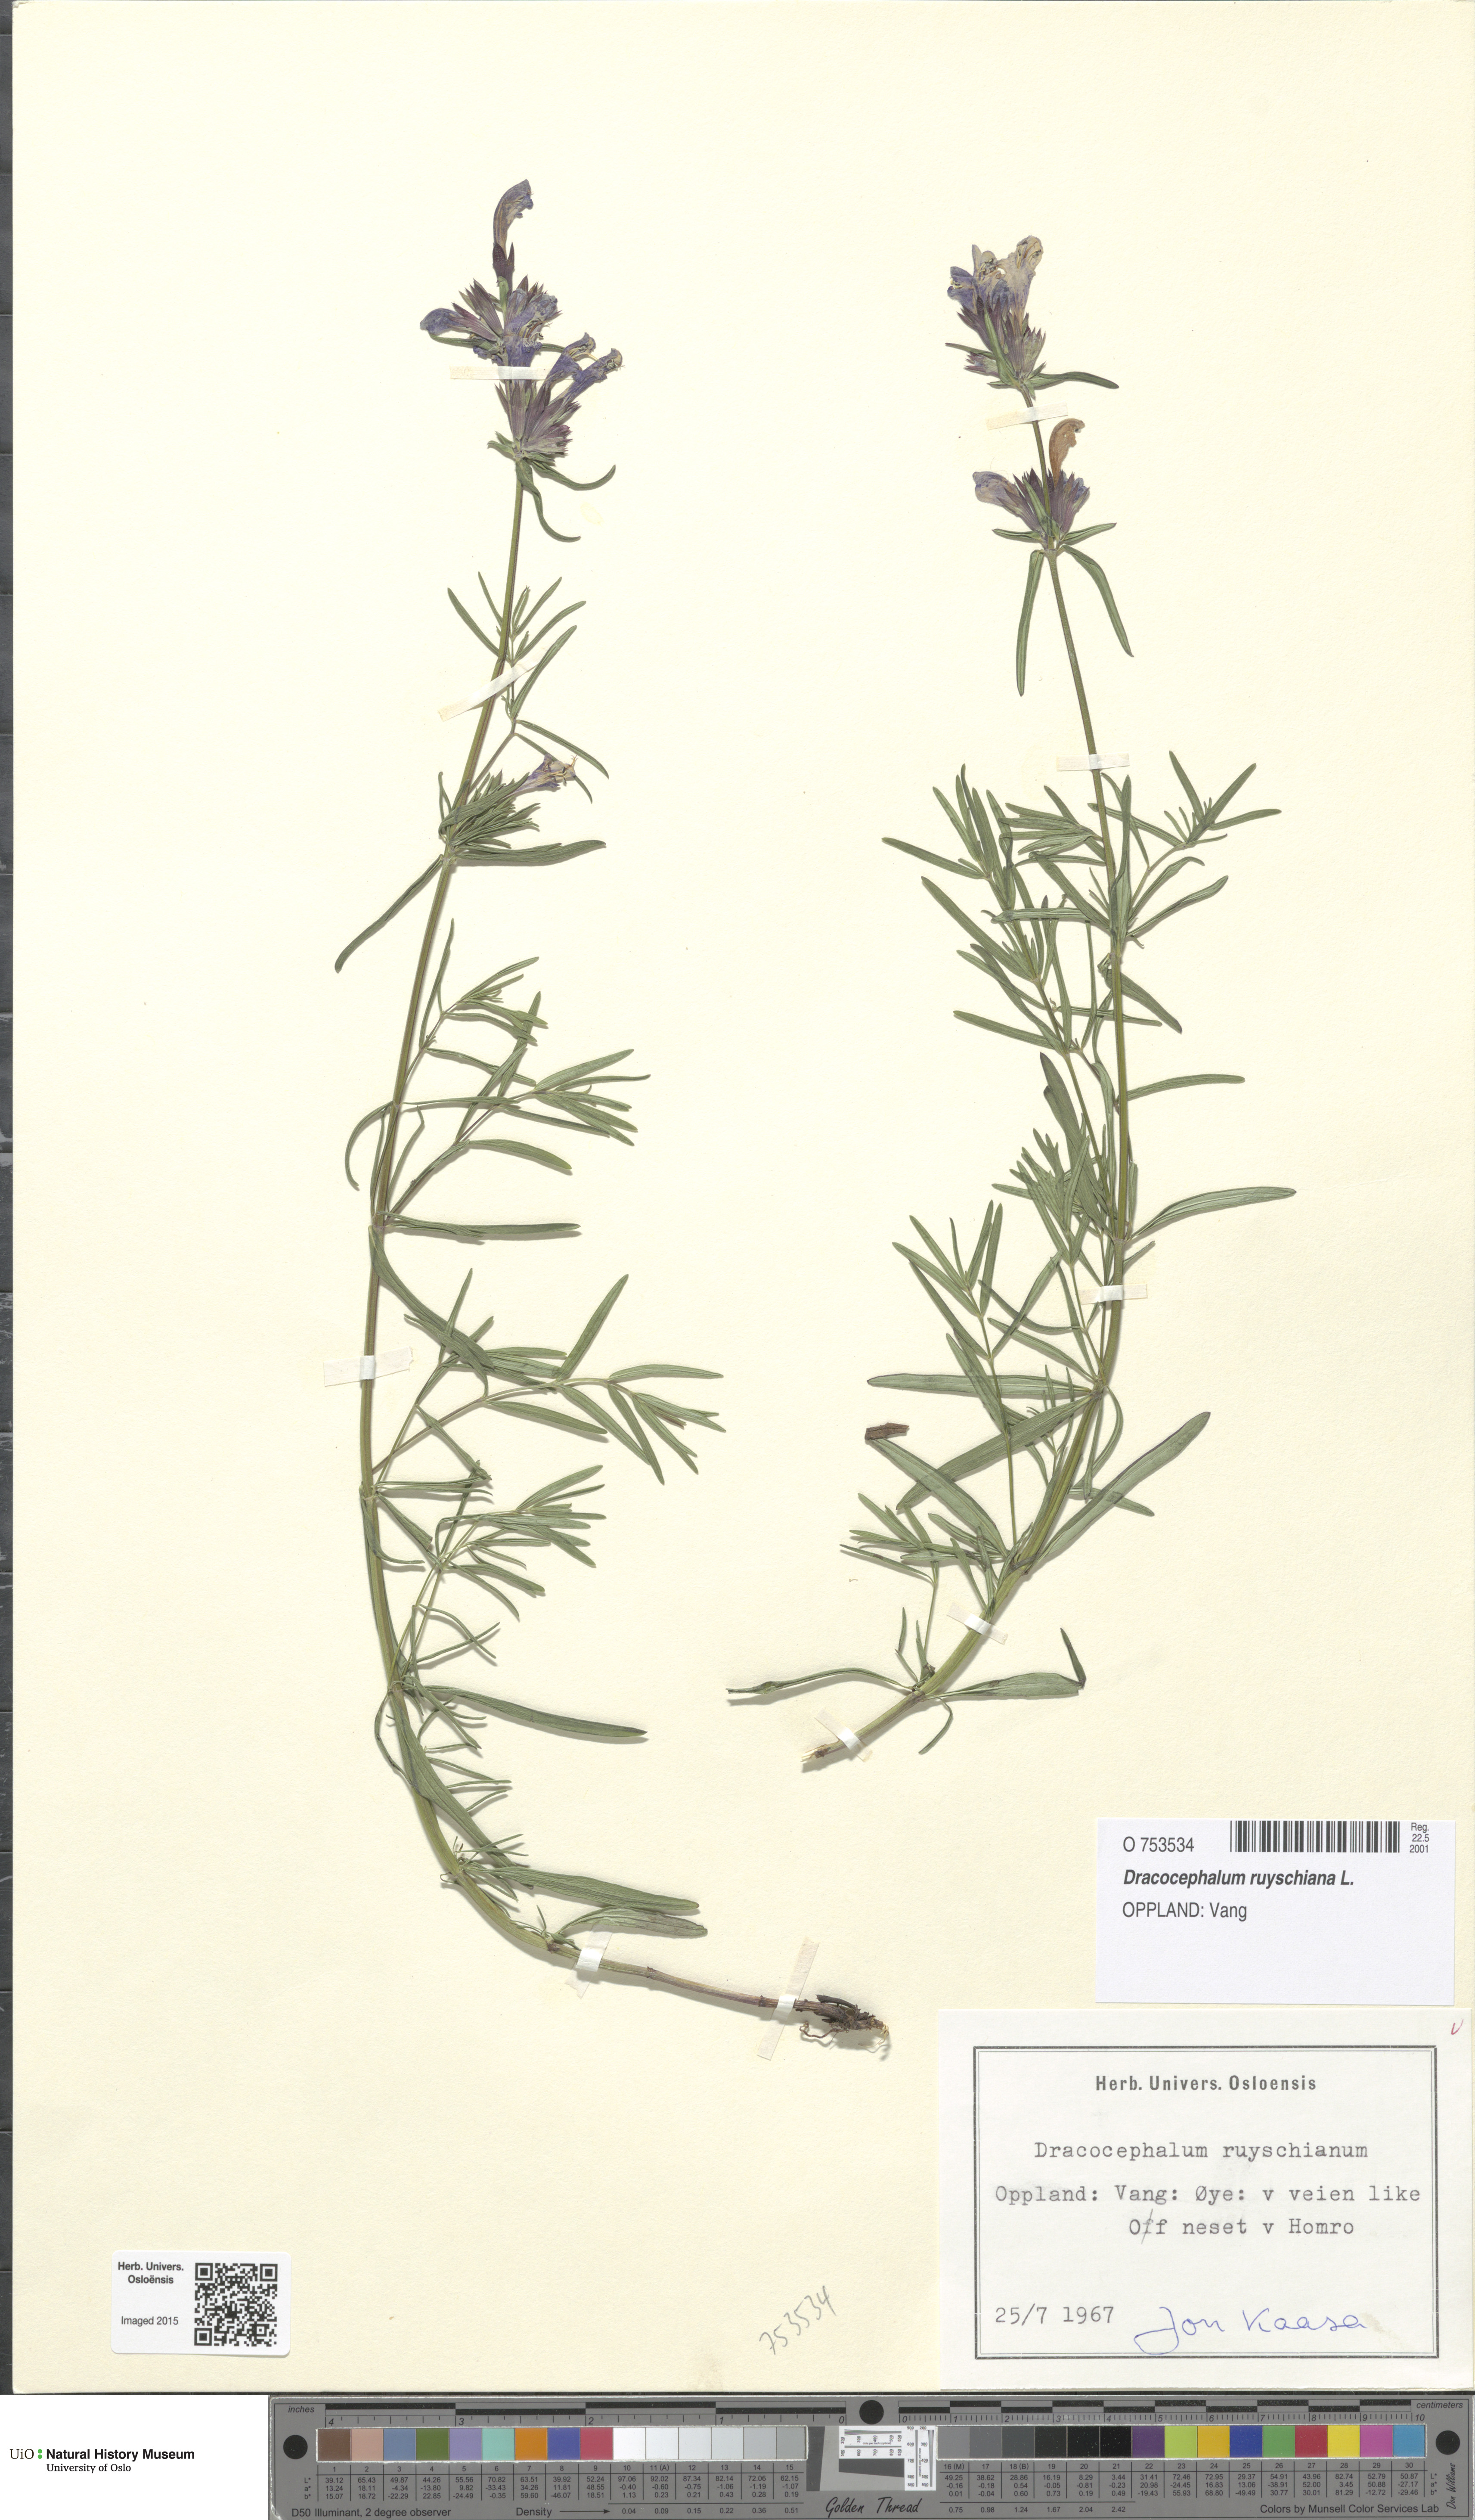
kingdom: Plantae
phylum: Tracheophyta
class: Magnoliopsida
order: Lamiales
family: Lamiaceae
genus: Dracocephalum
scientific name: Dracocephalum ruyschiana
